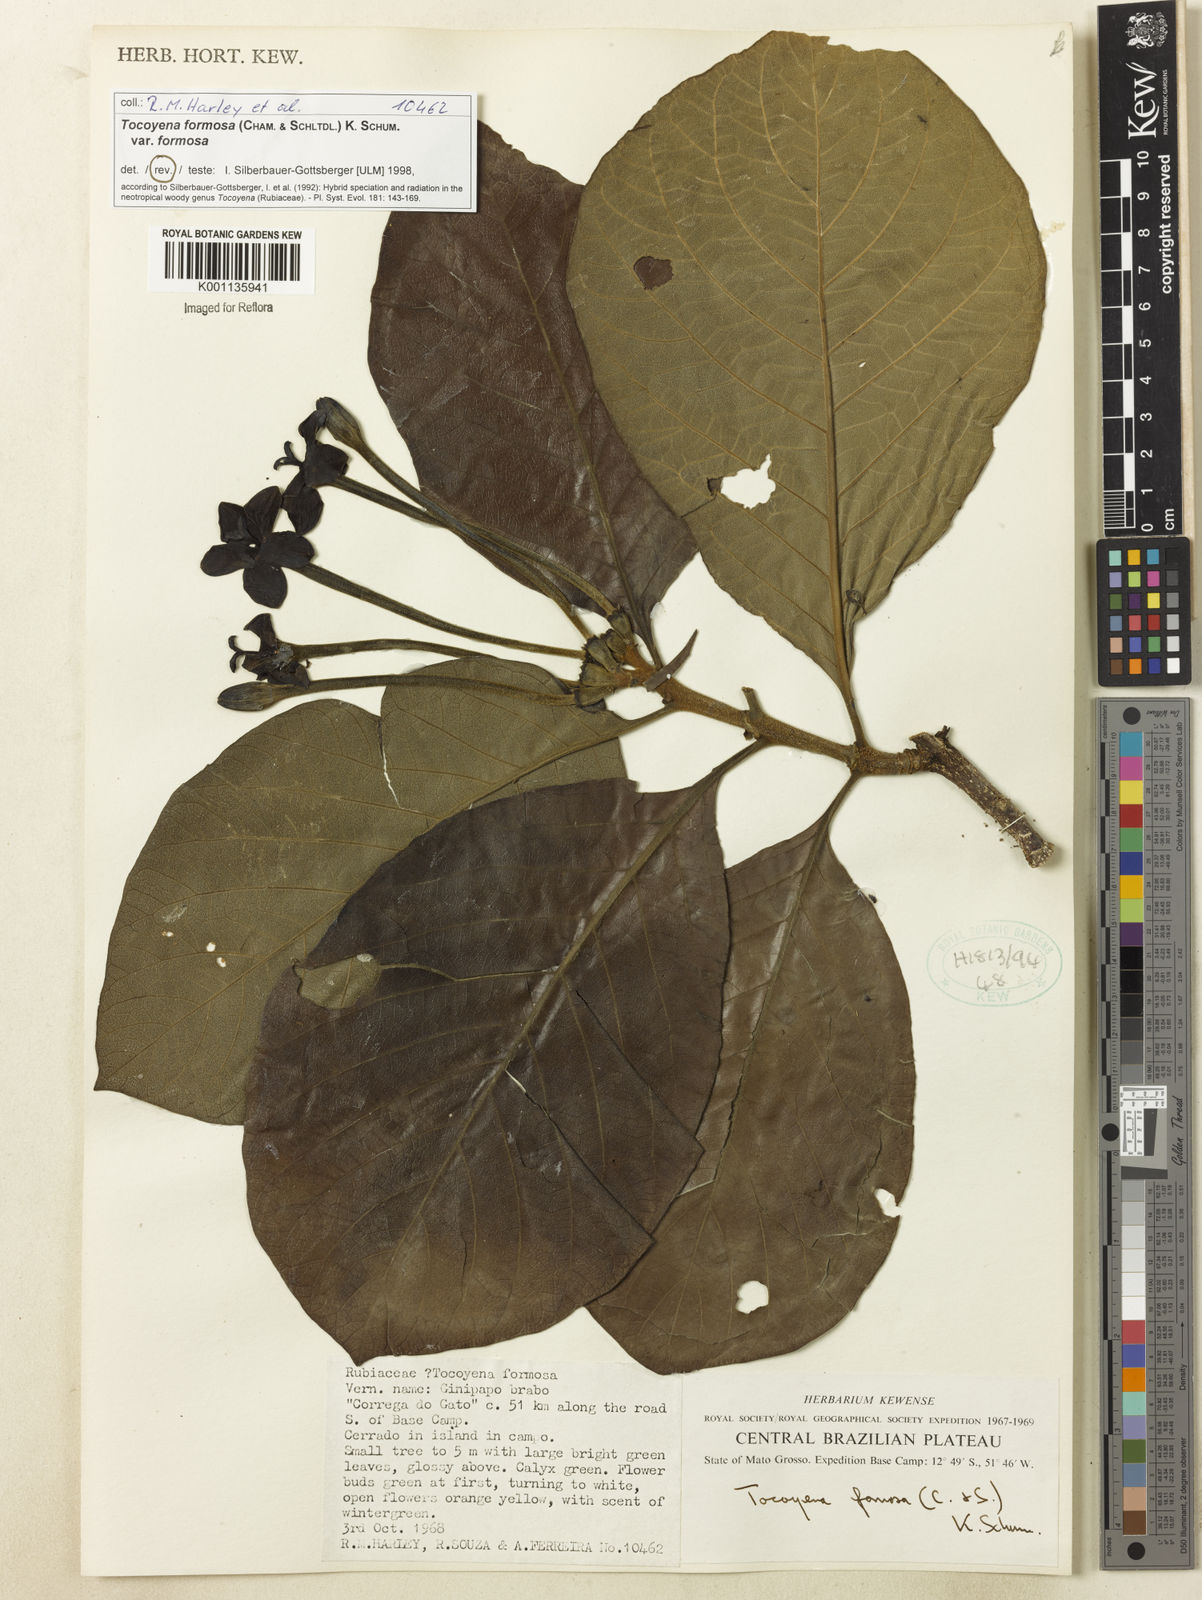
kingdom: Plantae
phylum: Tracheophyta
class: Magnoliopsida
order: Gentianales
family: Rubiaceae
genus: Tocoyena
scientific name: Tocoyena formosa
